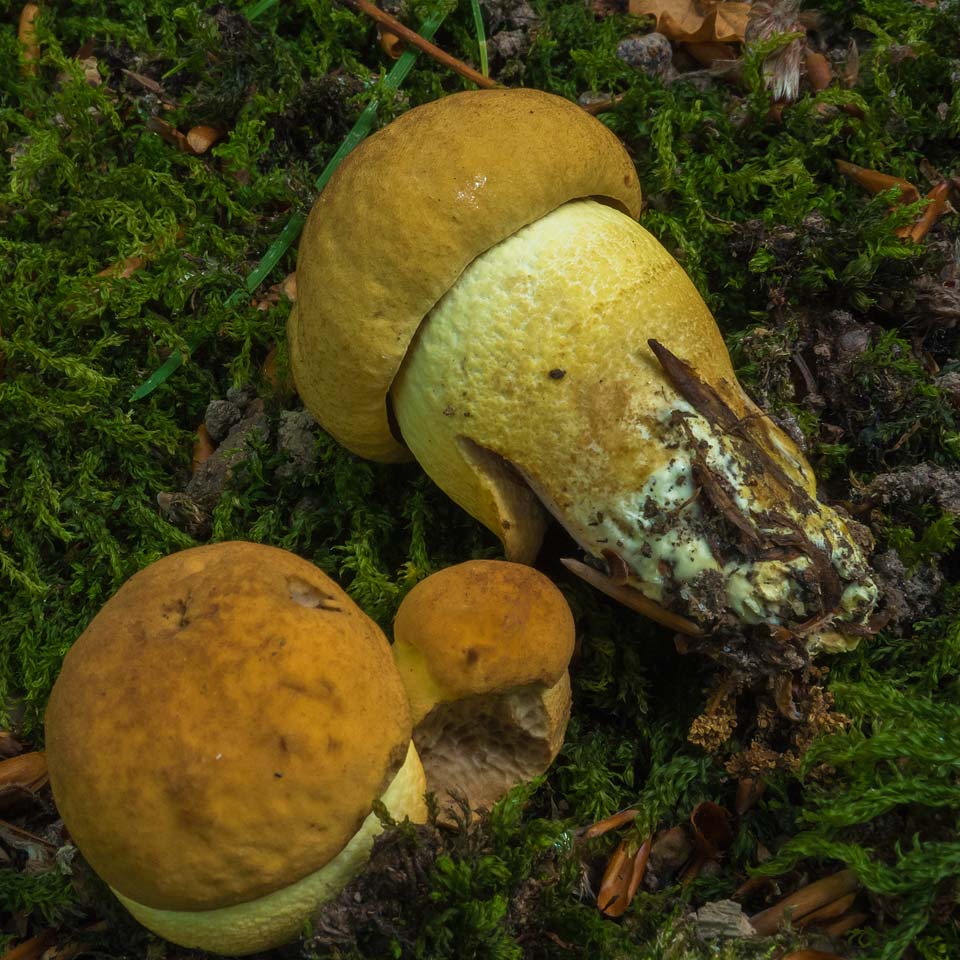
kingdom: Fungi
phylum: Basidiomycota
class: Agaricomycetes
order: Boletales
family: Boletaceae
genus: Leccinellum
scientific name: Leccinellum crocipodium
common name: gul skælrørhat
